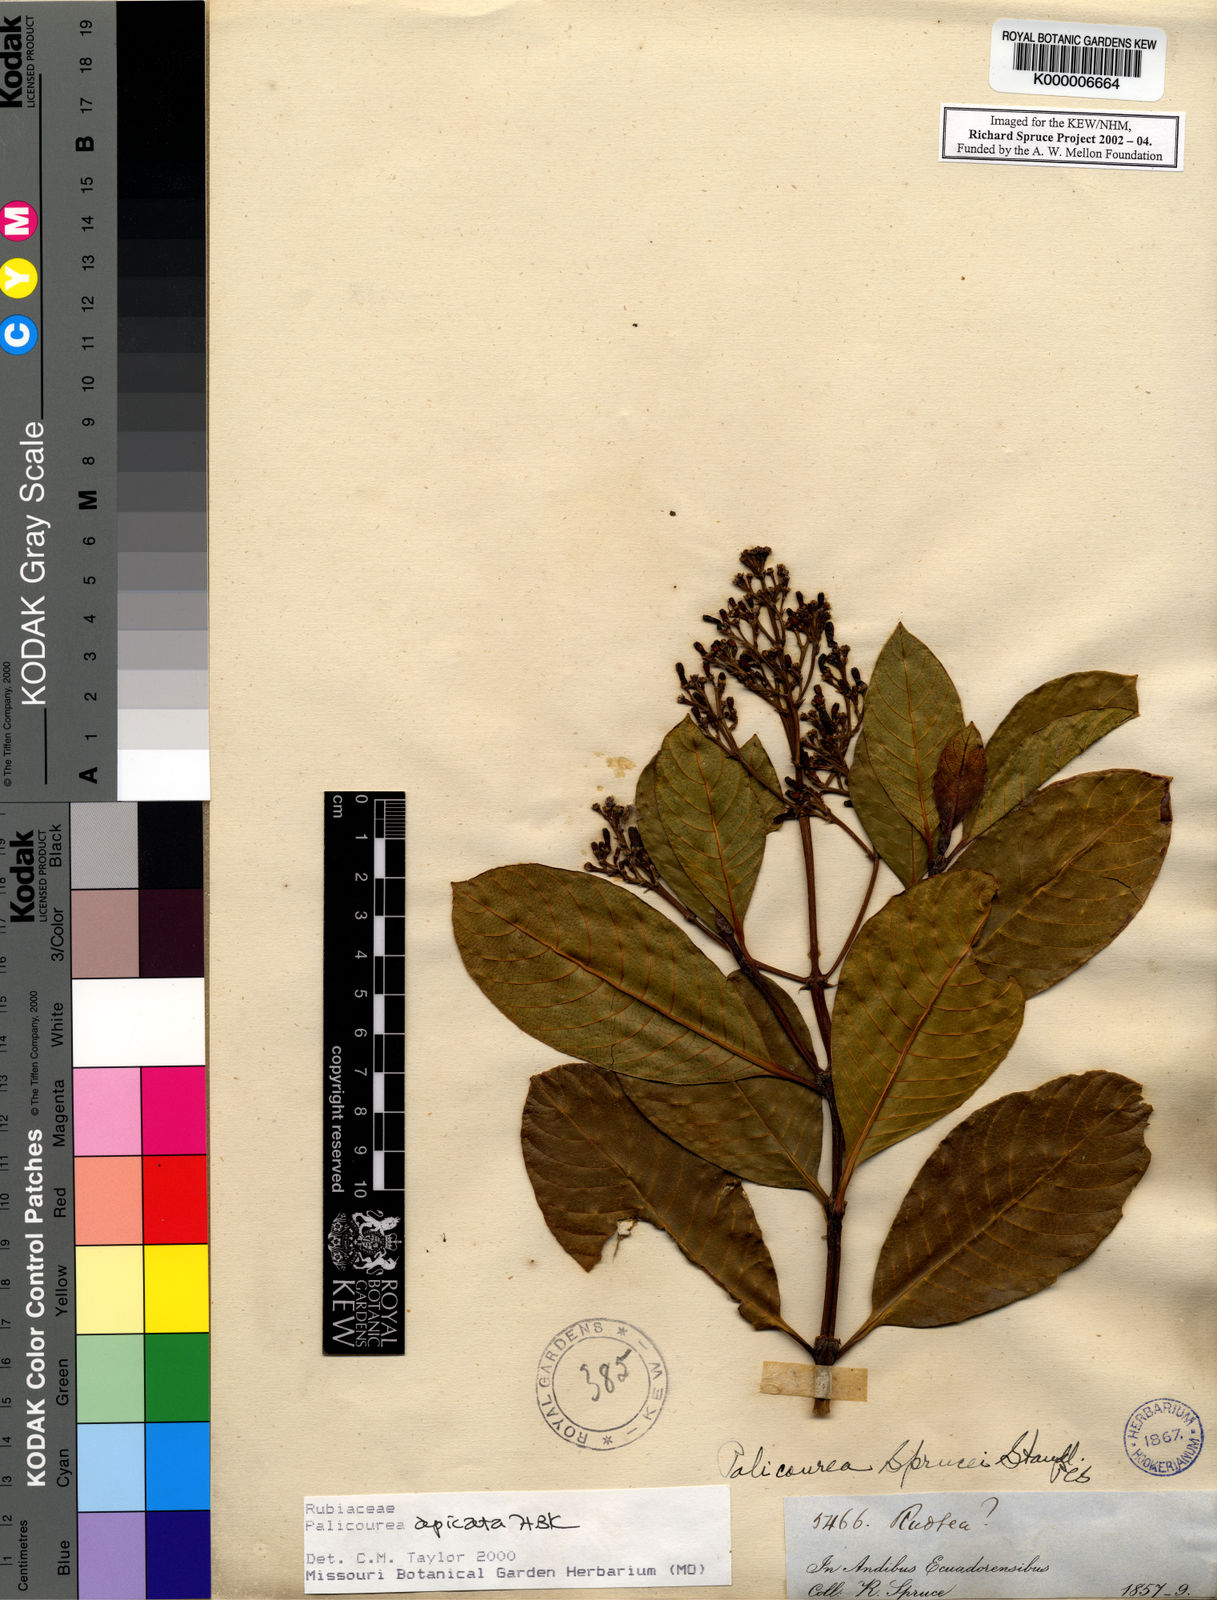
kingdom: Plantae
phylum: Tracheophyta
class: Magnoliopsida
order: Gentianales
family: Rubiaceae
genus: Palicourea
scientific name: Palicourea apicata
